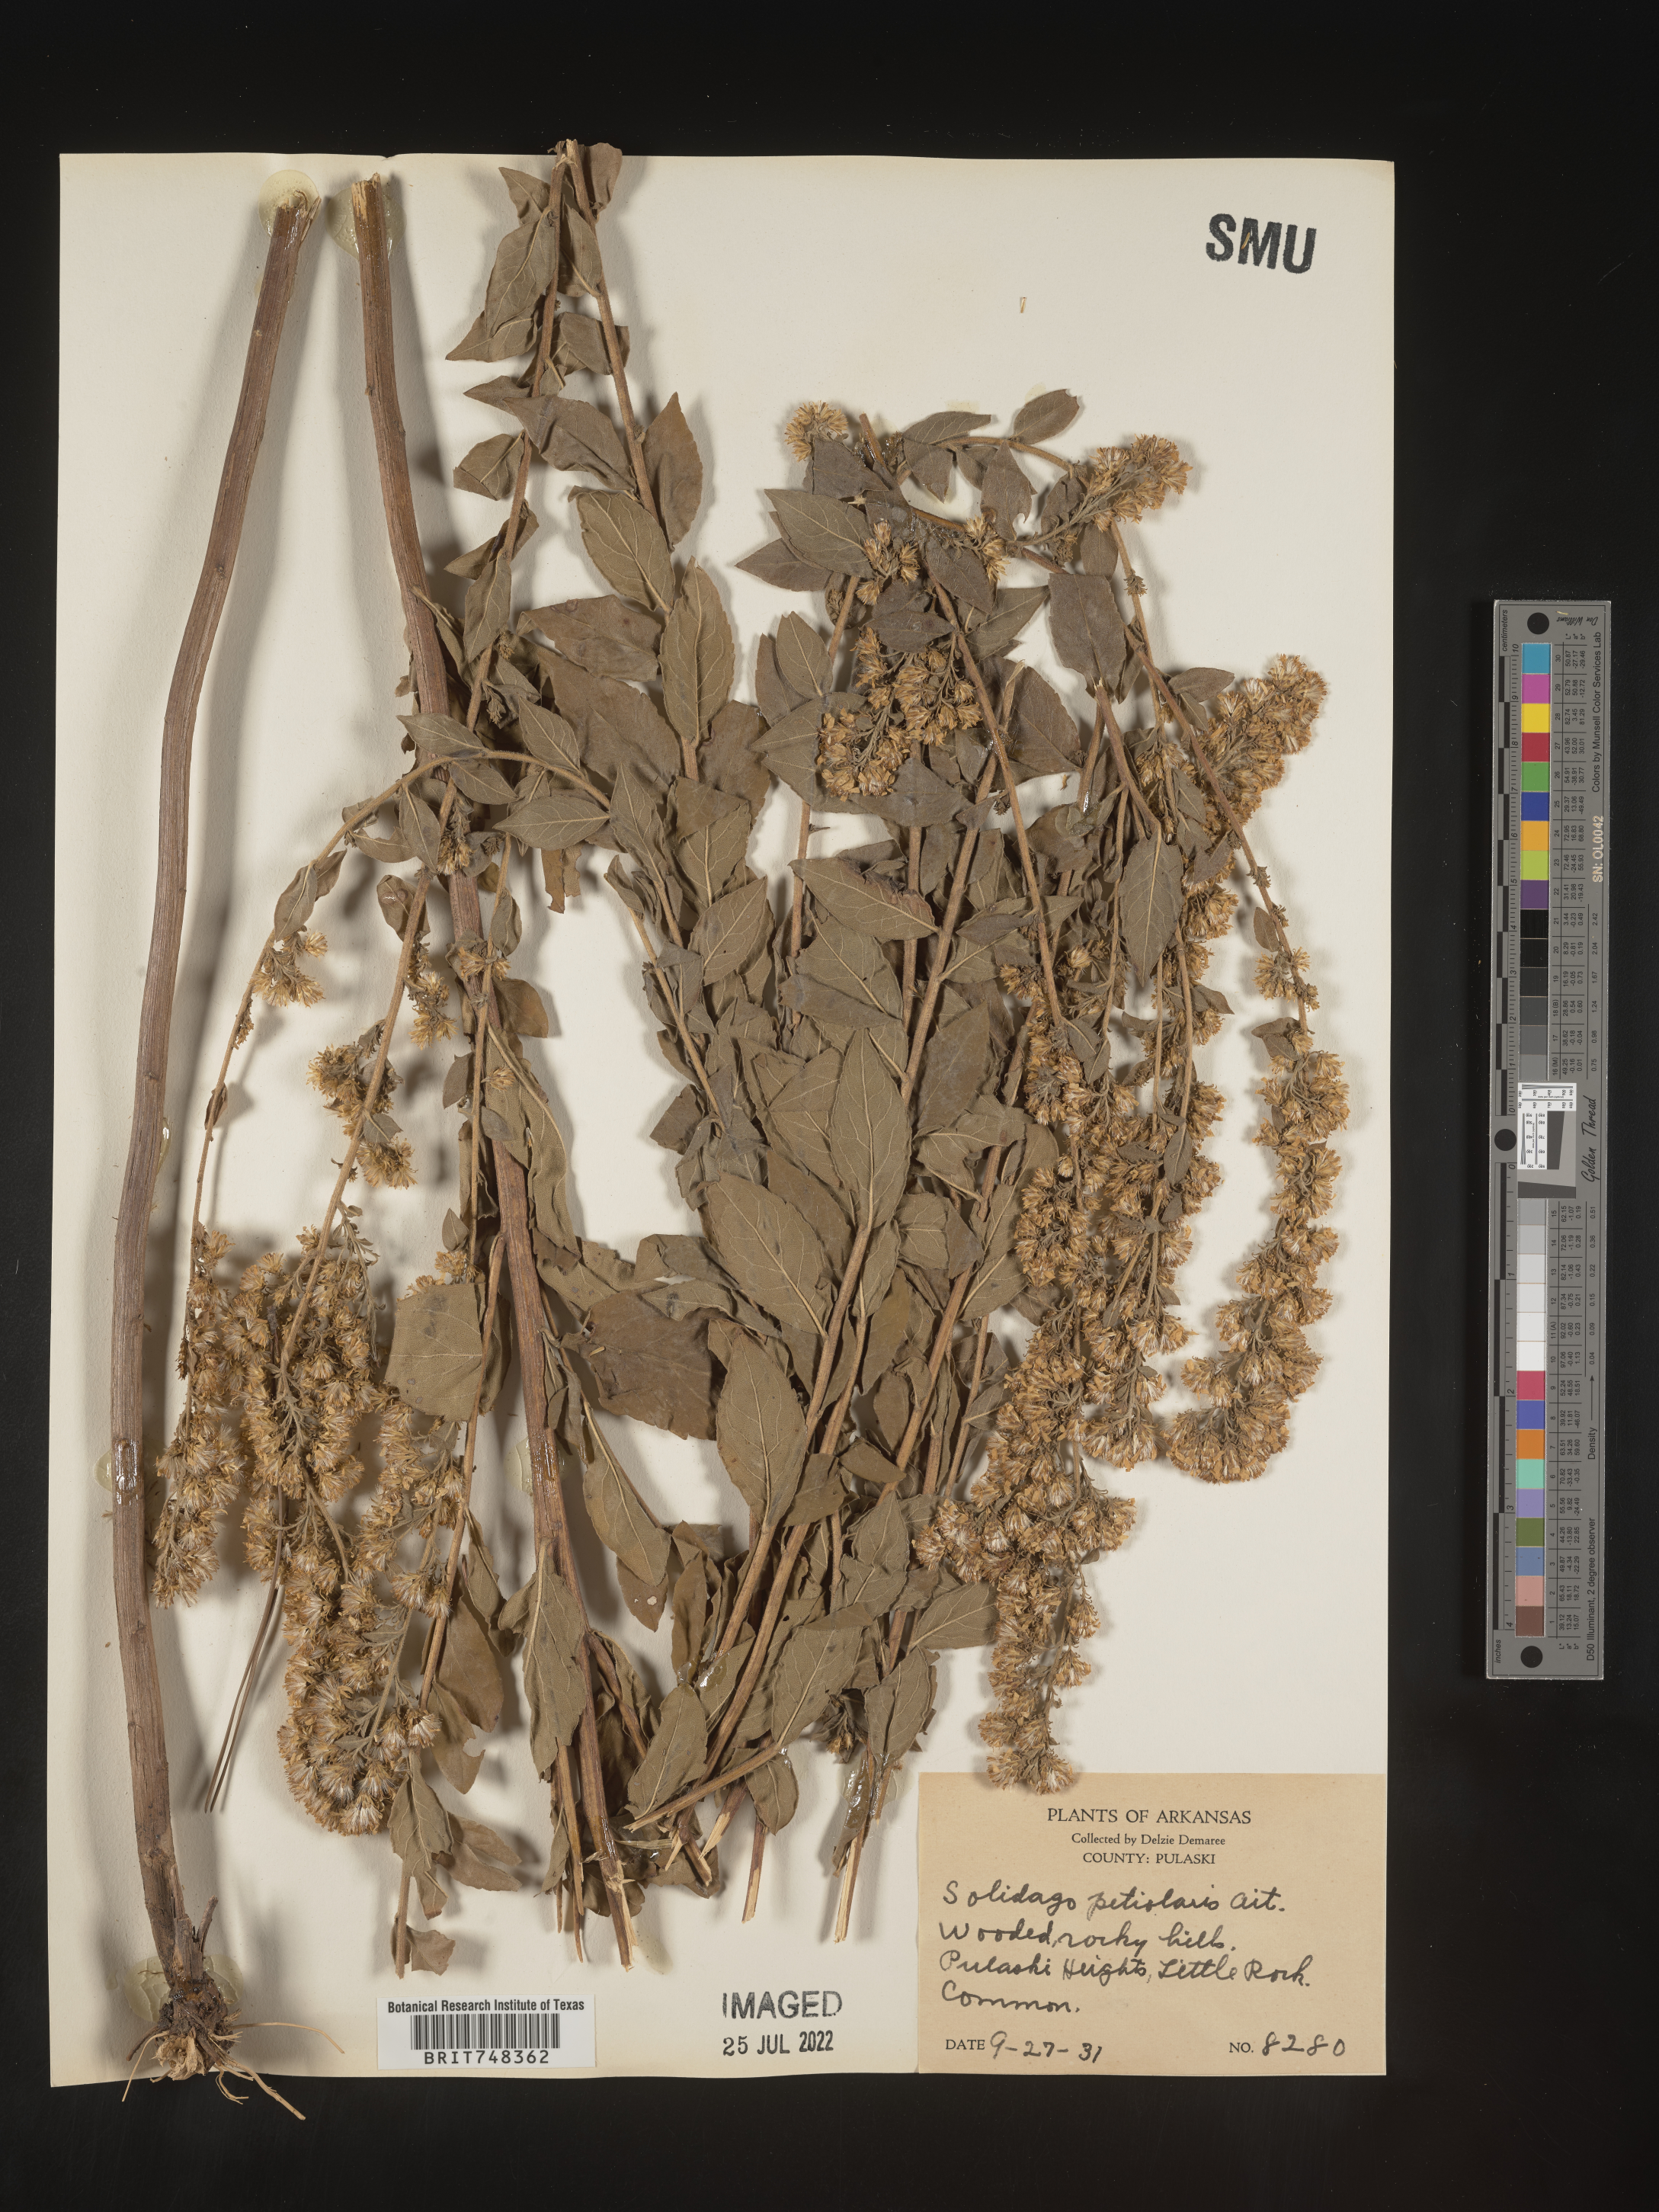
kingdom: Plantae
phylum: Tracheophyta
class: Magnoliopsida
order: Asterales
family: Asteraceae
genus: Solidago
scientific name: Solidago petiolaris
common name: Downy ragged goldenrod
